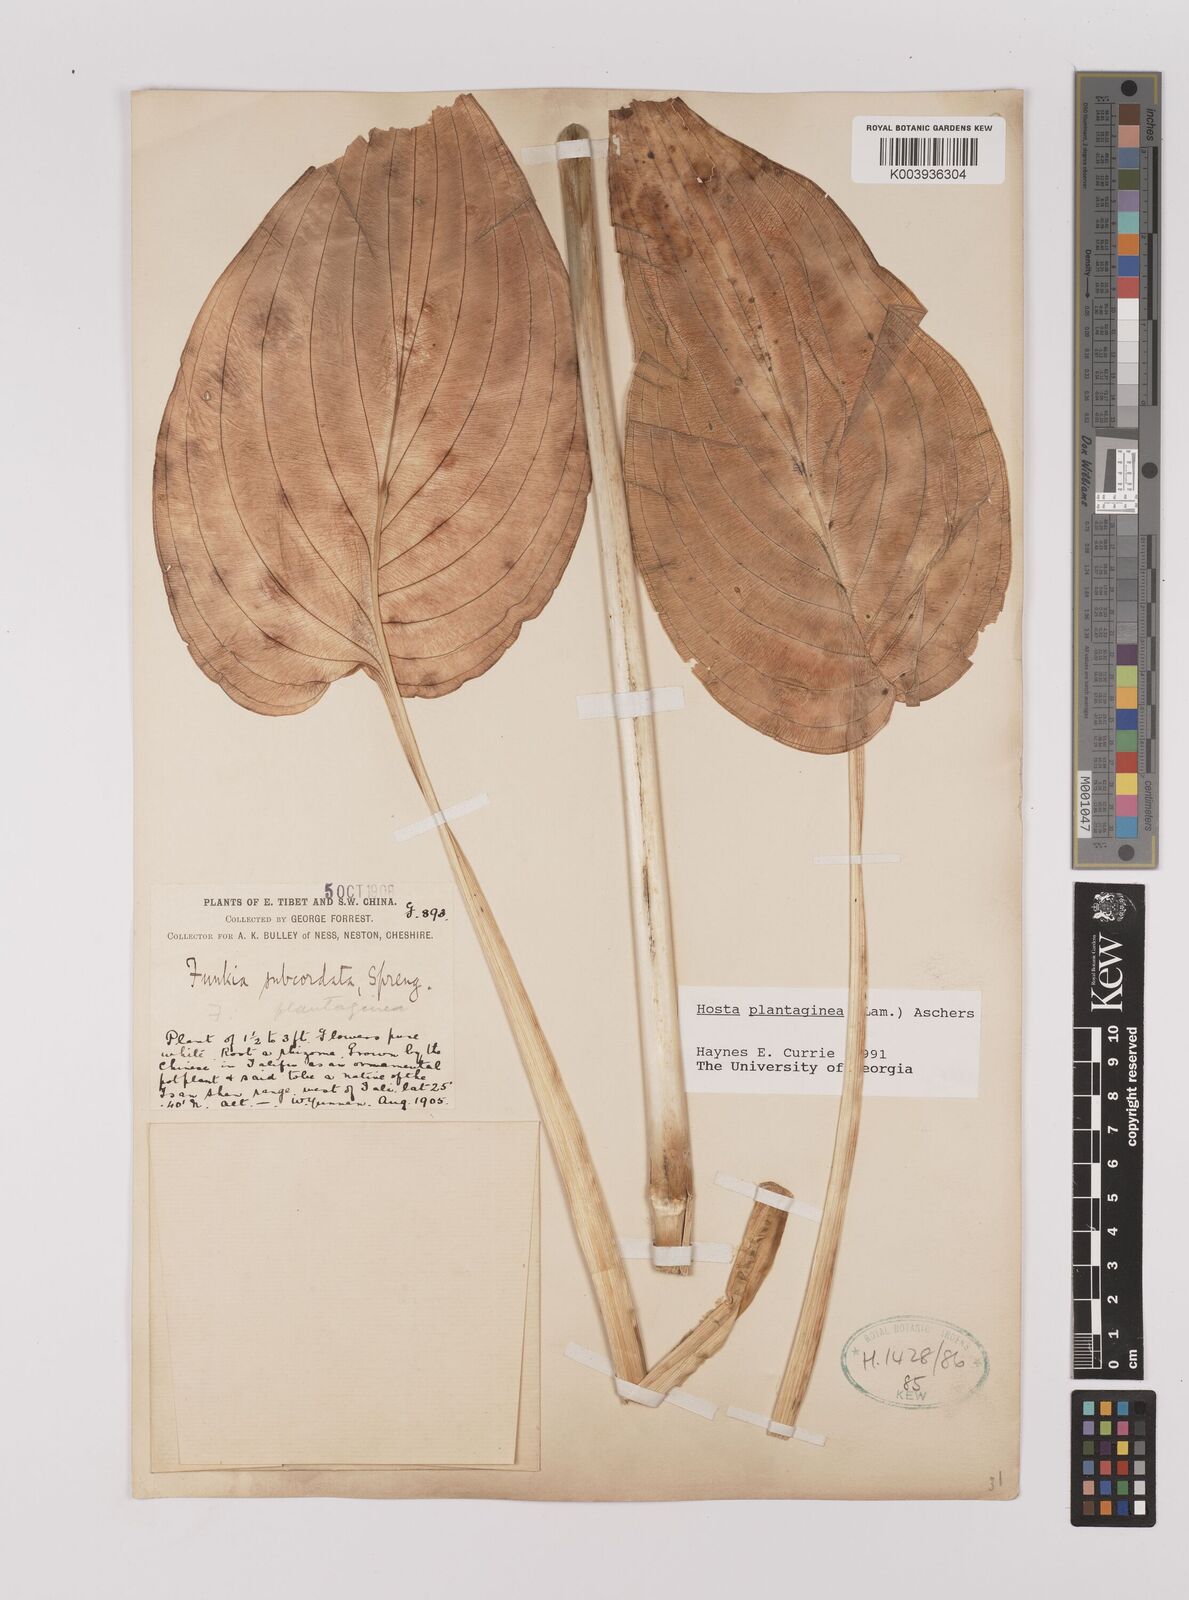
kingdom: Plantae
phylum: Tracheophyta
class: Liliopsida
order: Asparagales
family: Asparagaceae
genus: Hosta
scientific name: Hosta plantaginea
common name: August-lily
